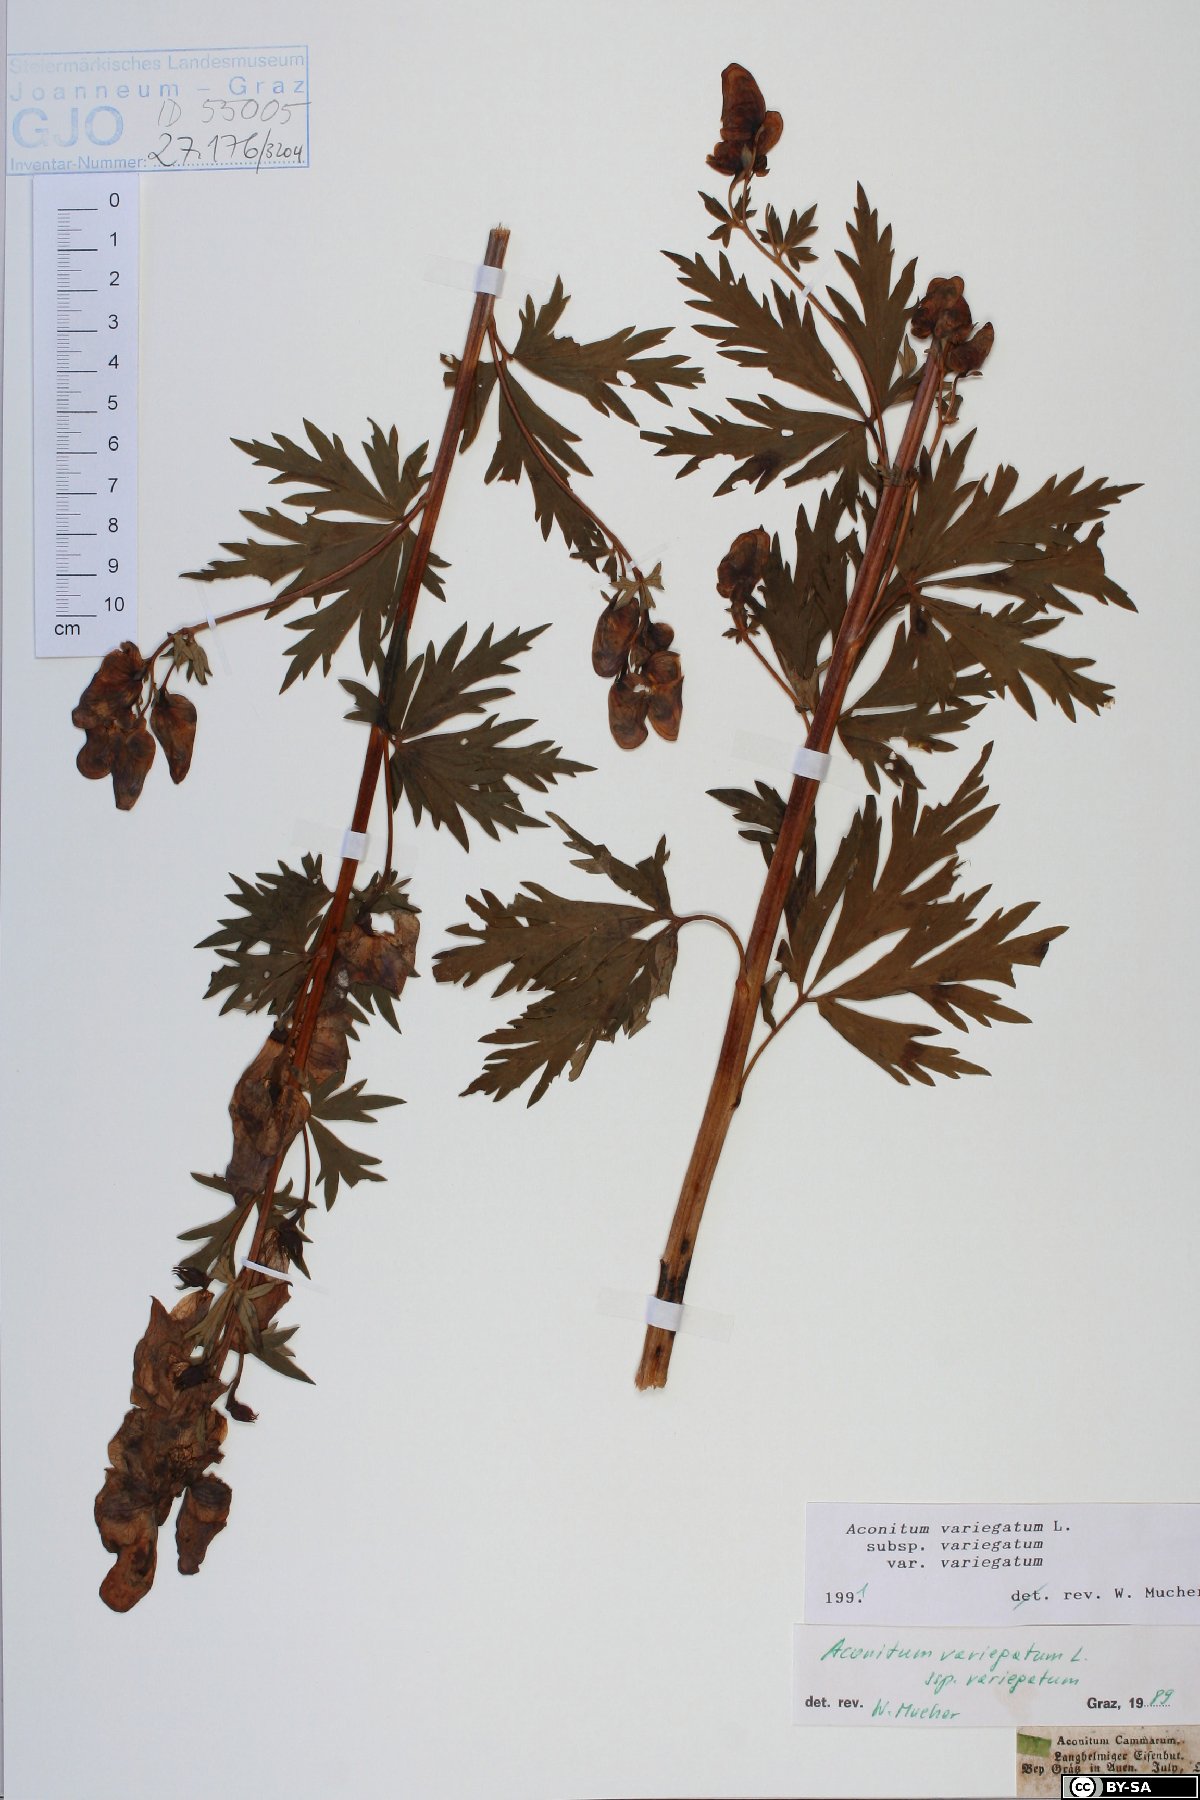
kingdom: Plantae
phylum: Tracheophyta
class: Magnoliopsida
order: Ranunculales
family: Ranunculaceae
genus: Aconitum
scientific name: Aconitum variegatum
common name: Manchurian monkshood
